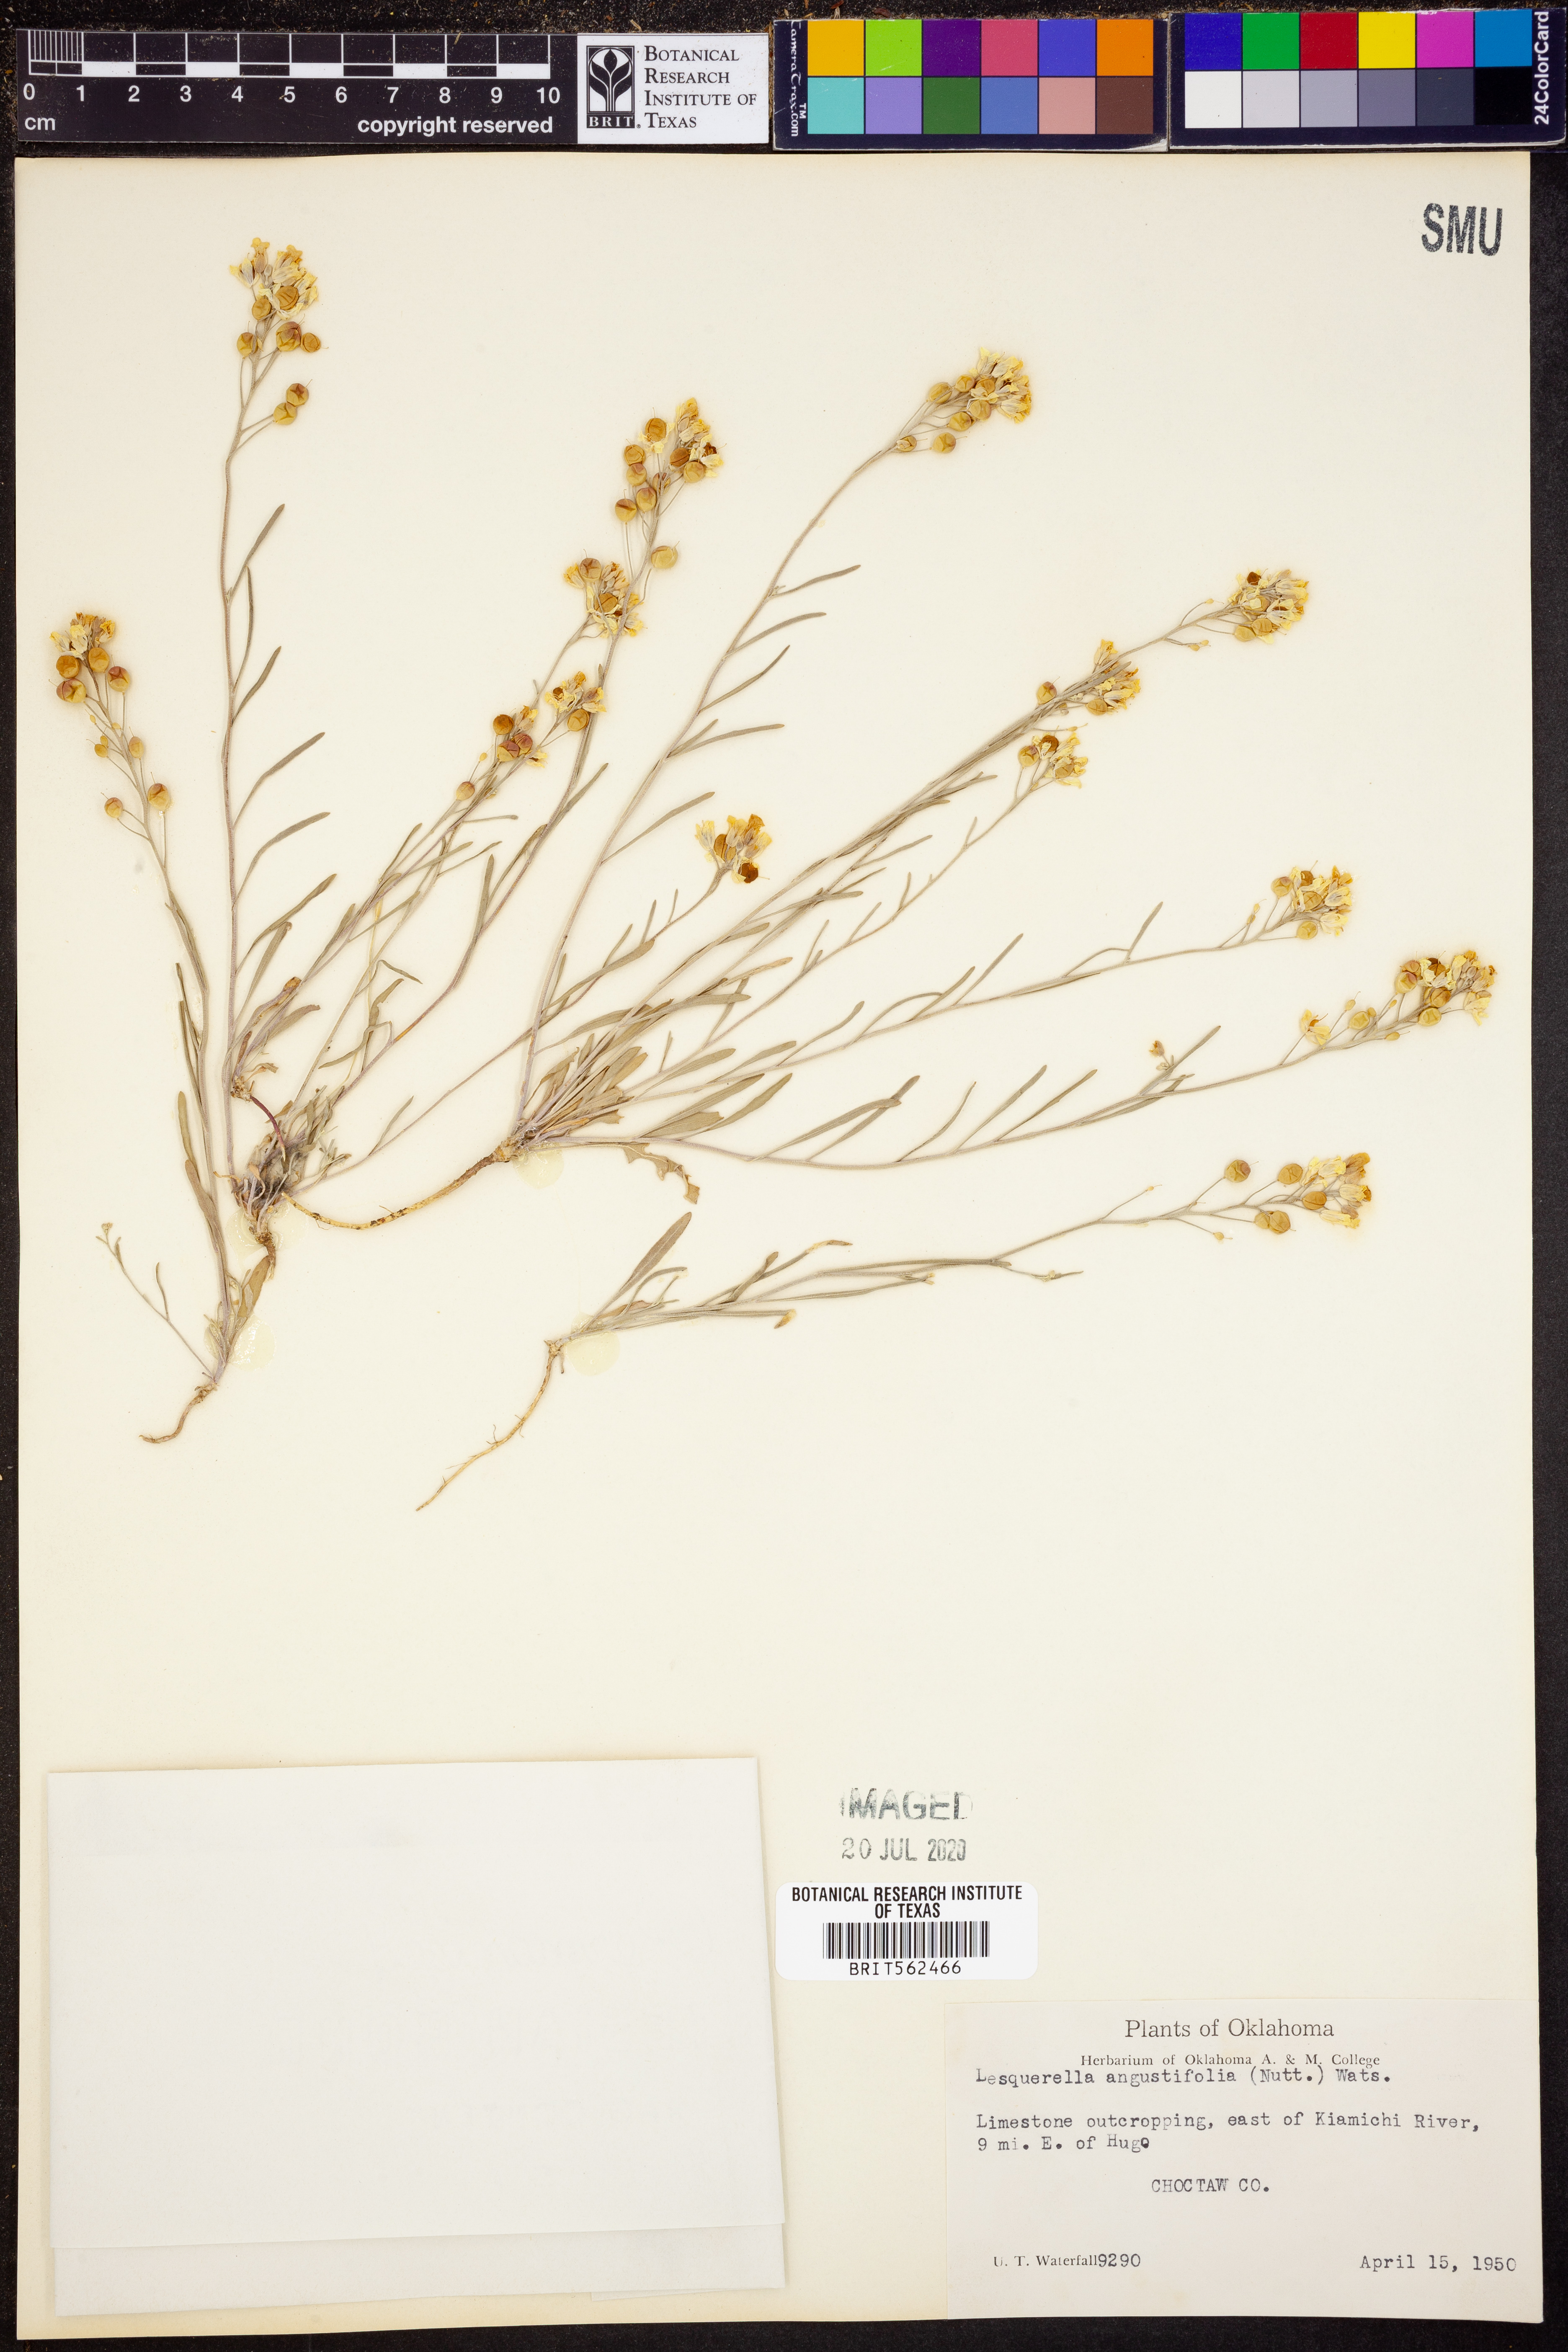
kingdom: Plantae
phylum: Tracheophyta
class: Magnoliopsida
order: Brassicales
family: Brassicaceae
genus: Physaria
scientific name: Physaria angustifolia
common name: Threadleaf bladderpod
